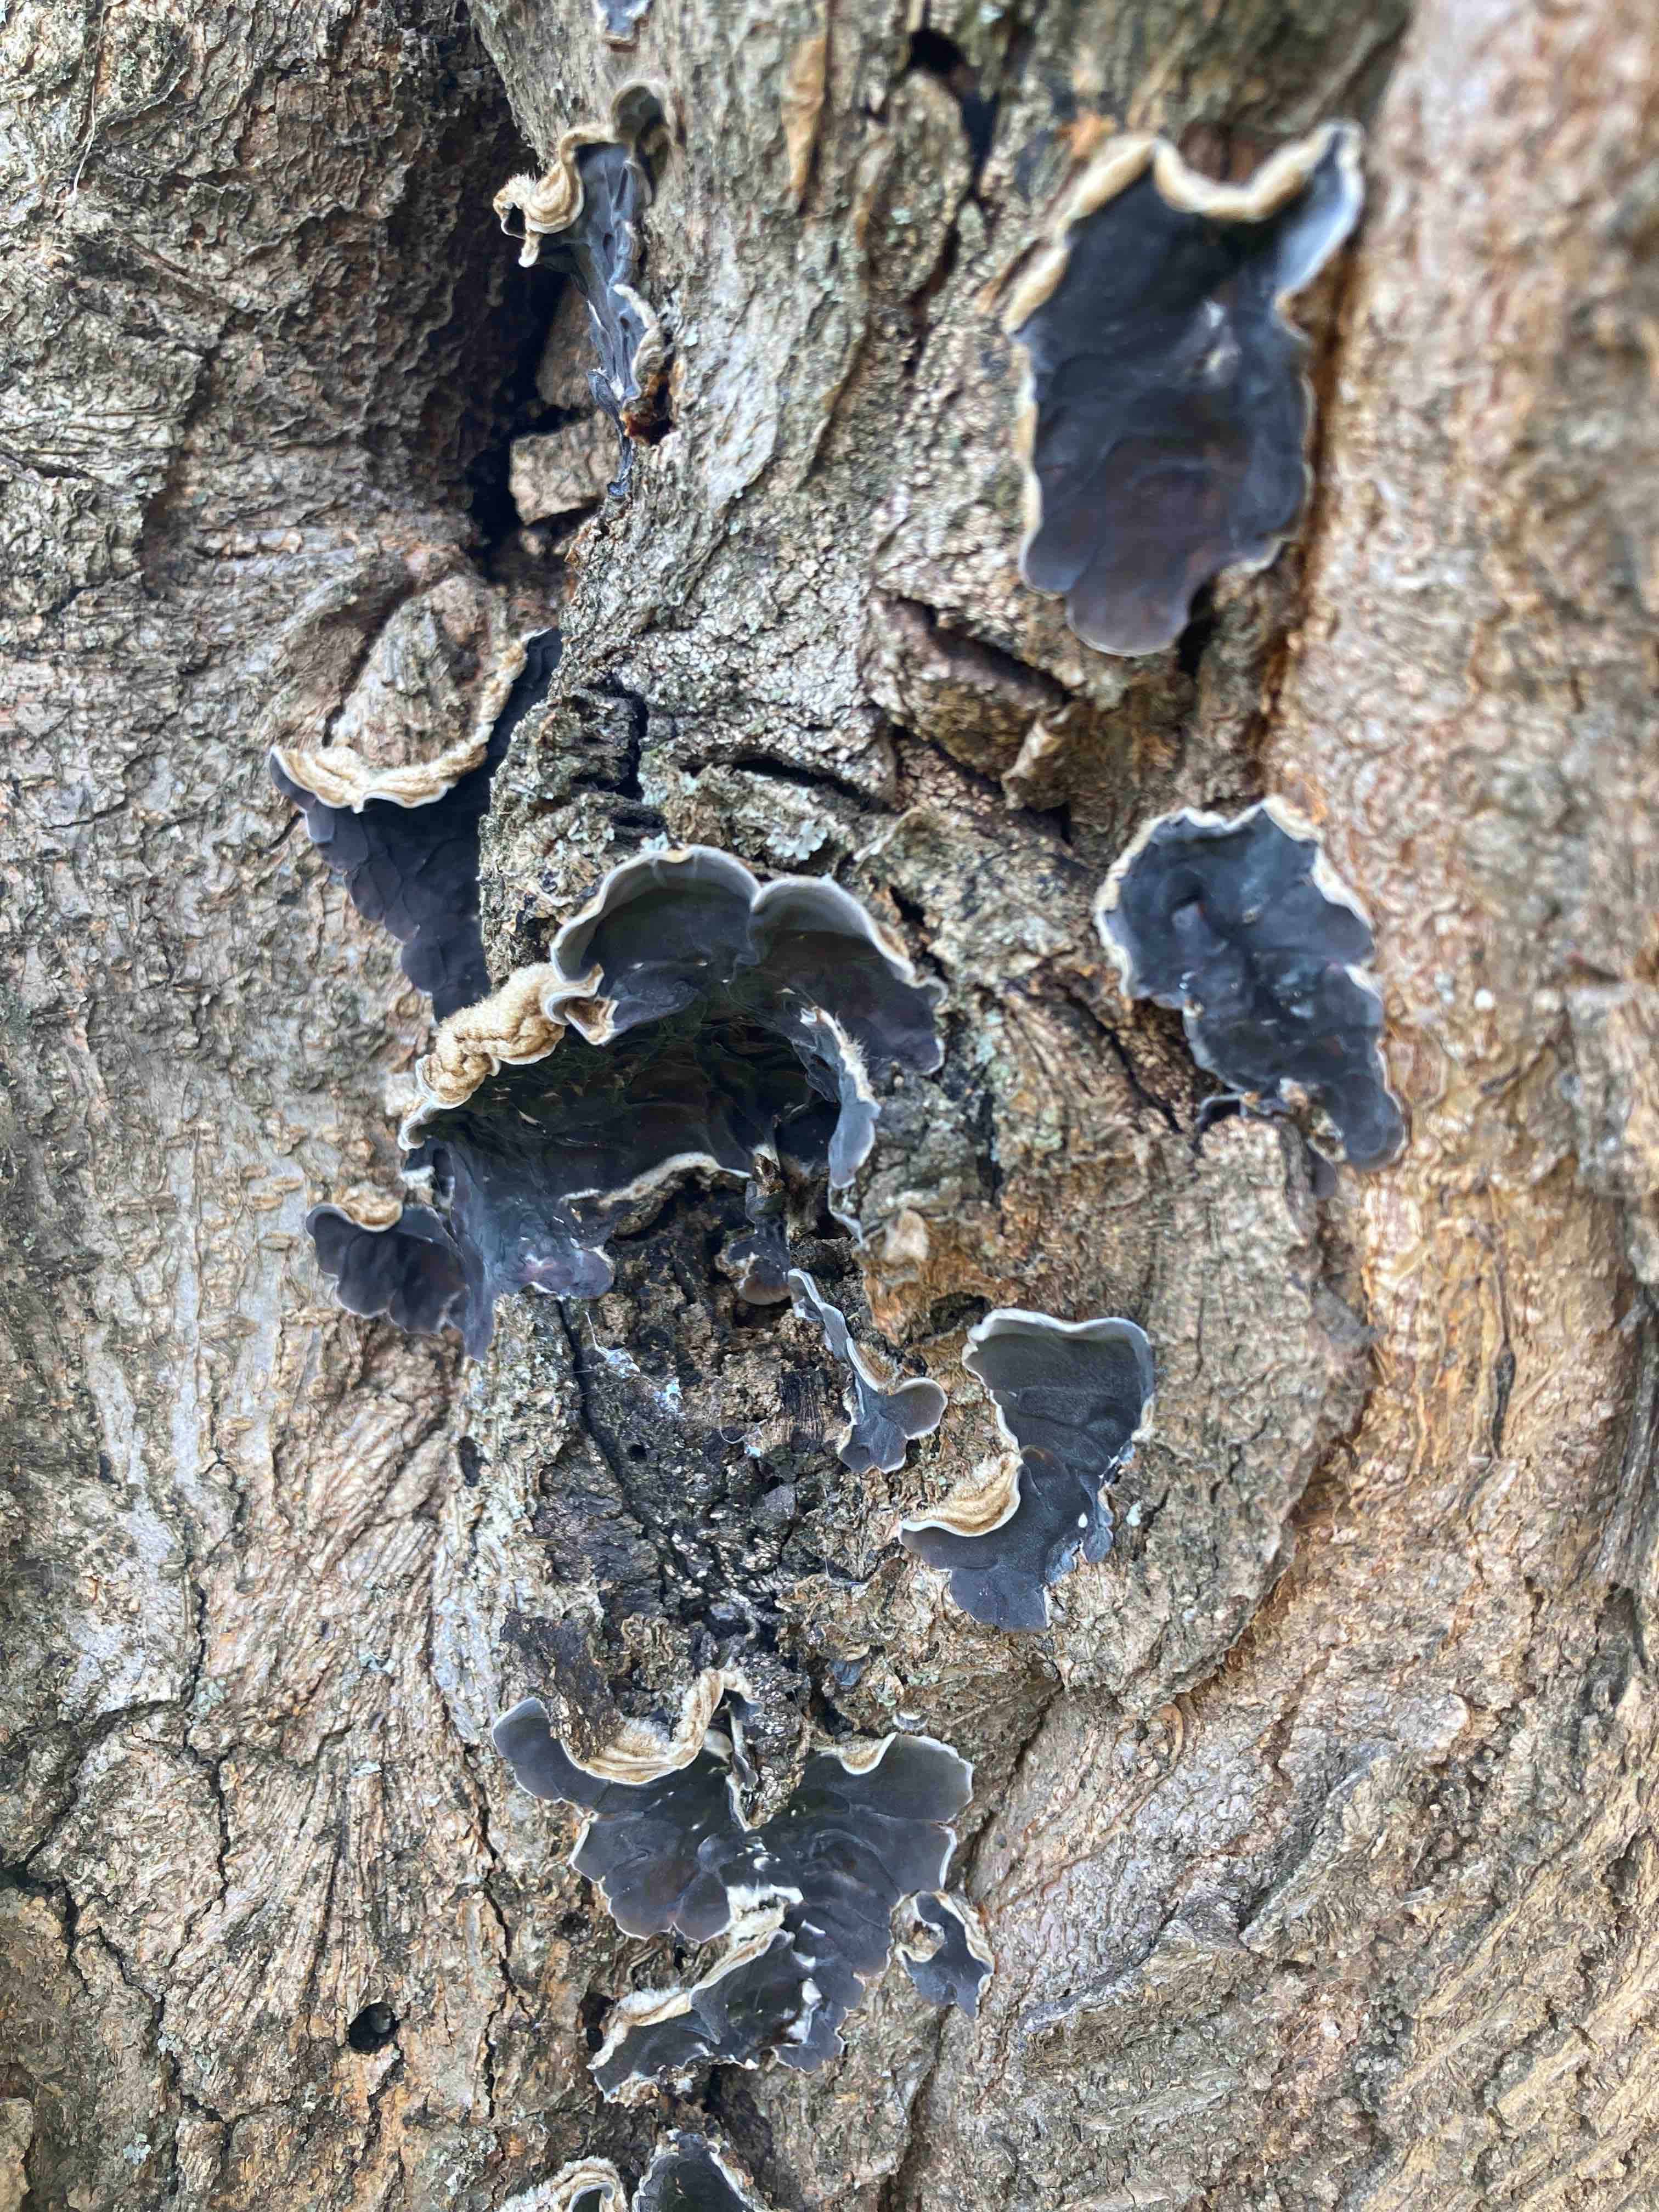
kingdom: Fungi
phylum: Basidiomycota
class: Agaricomycetes
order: Auriculariales
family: Auriculariaceae
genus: Auricularia
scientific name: Auricularia mesenterica
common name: håret judasøre
